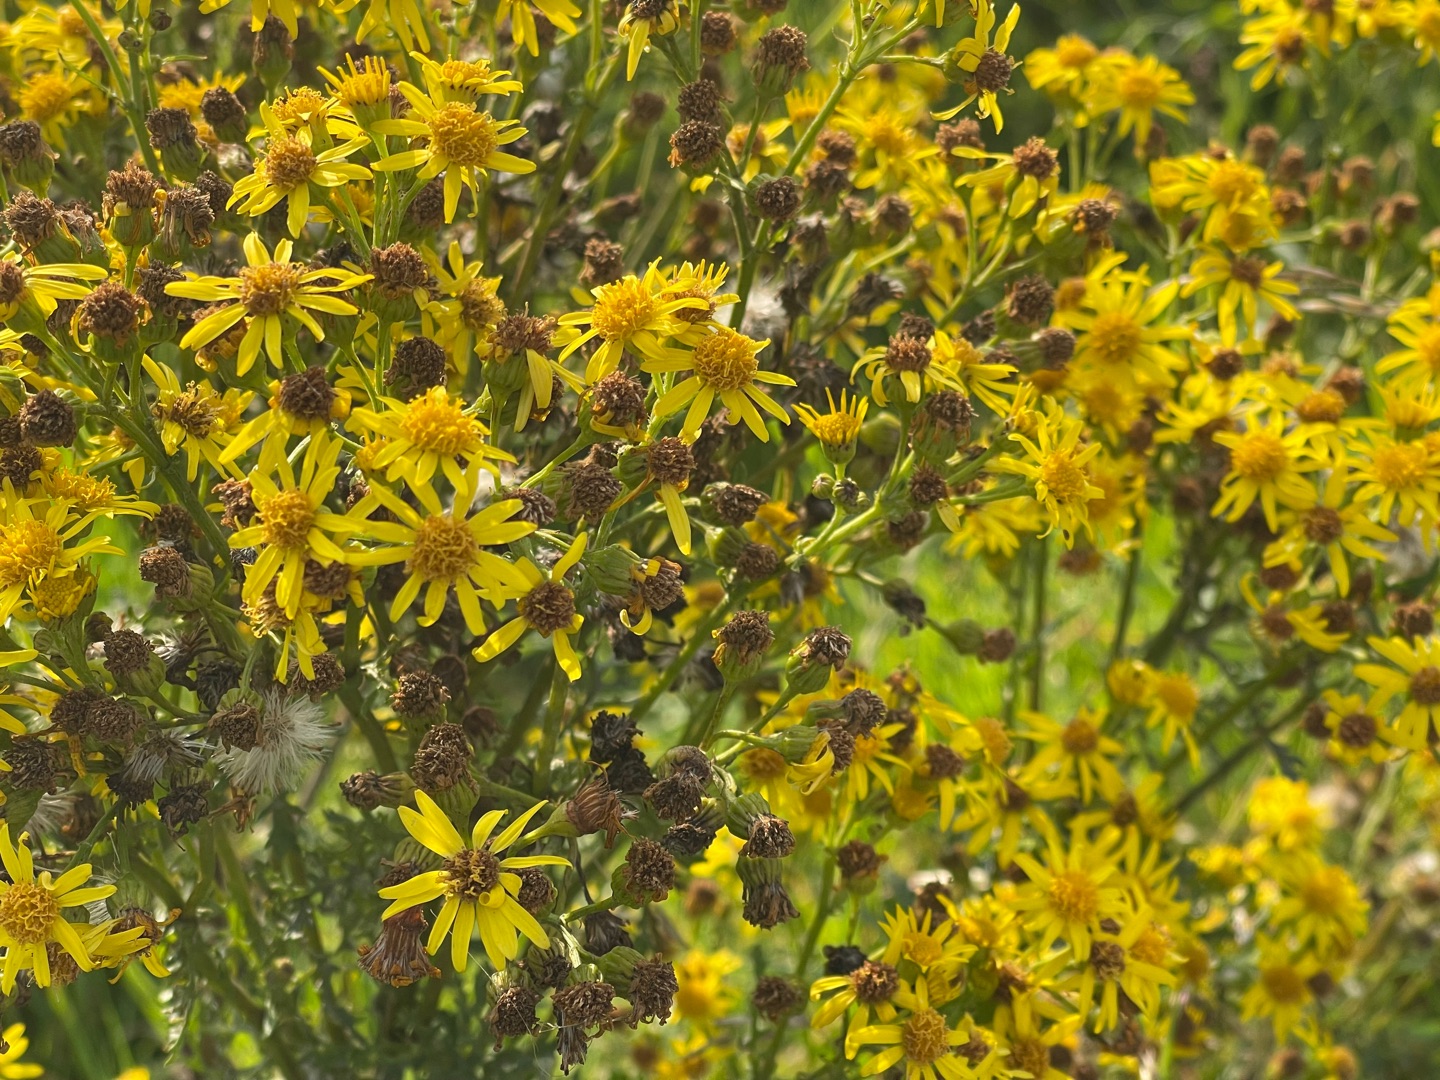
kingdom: Plantae
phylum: Tracheophyta
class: Magnoliopsida
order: Asterales
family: Asteraceae
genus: Jacobaea
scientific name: Jacobaea vulgaris
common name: Eng-brandbæger
